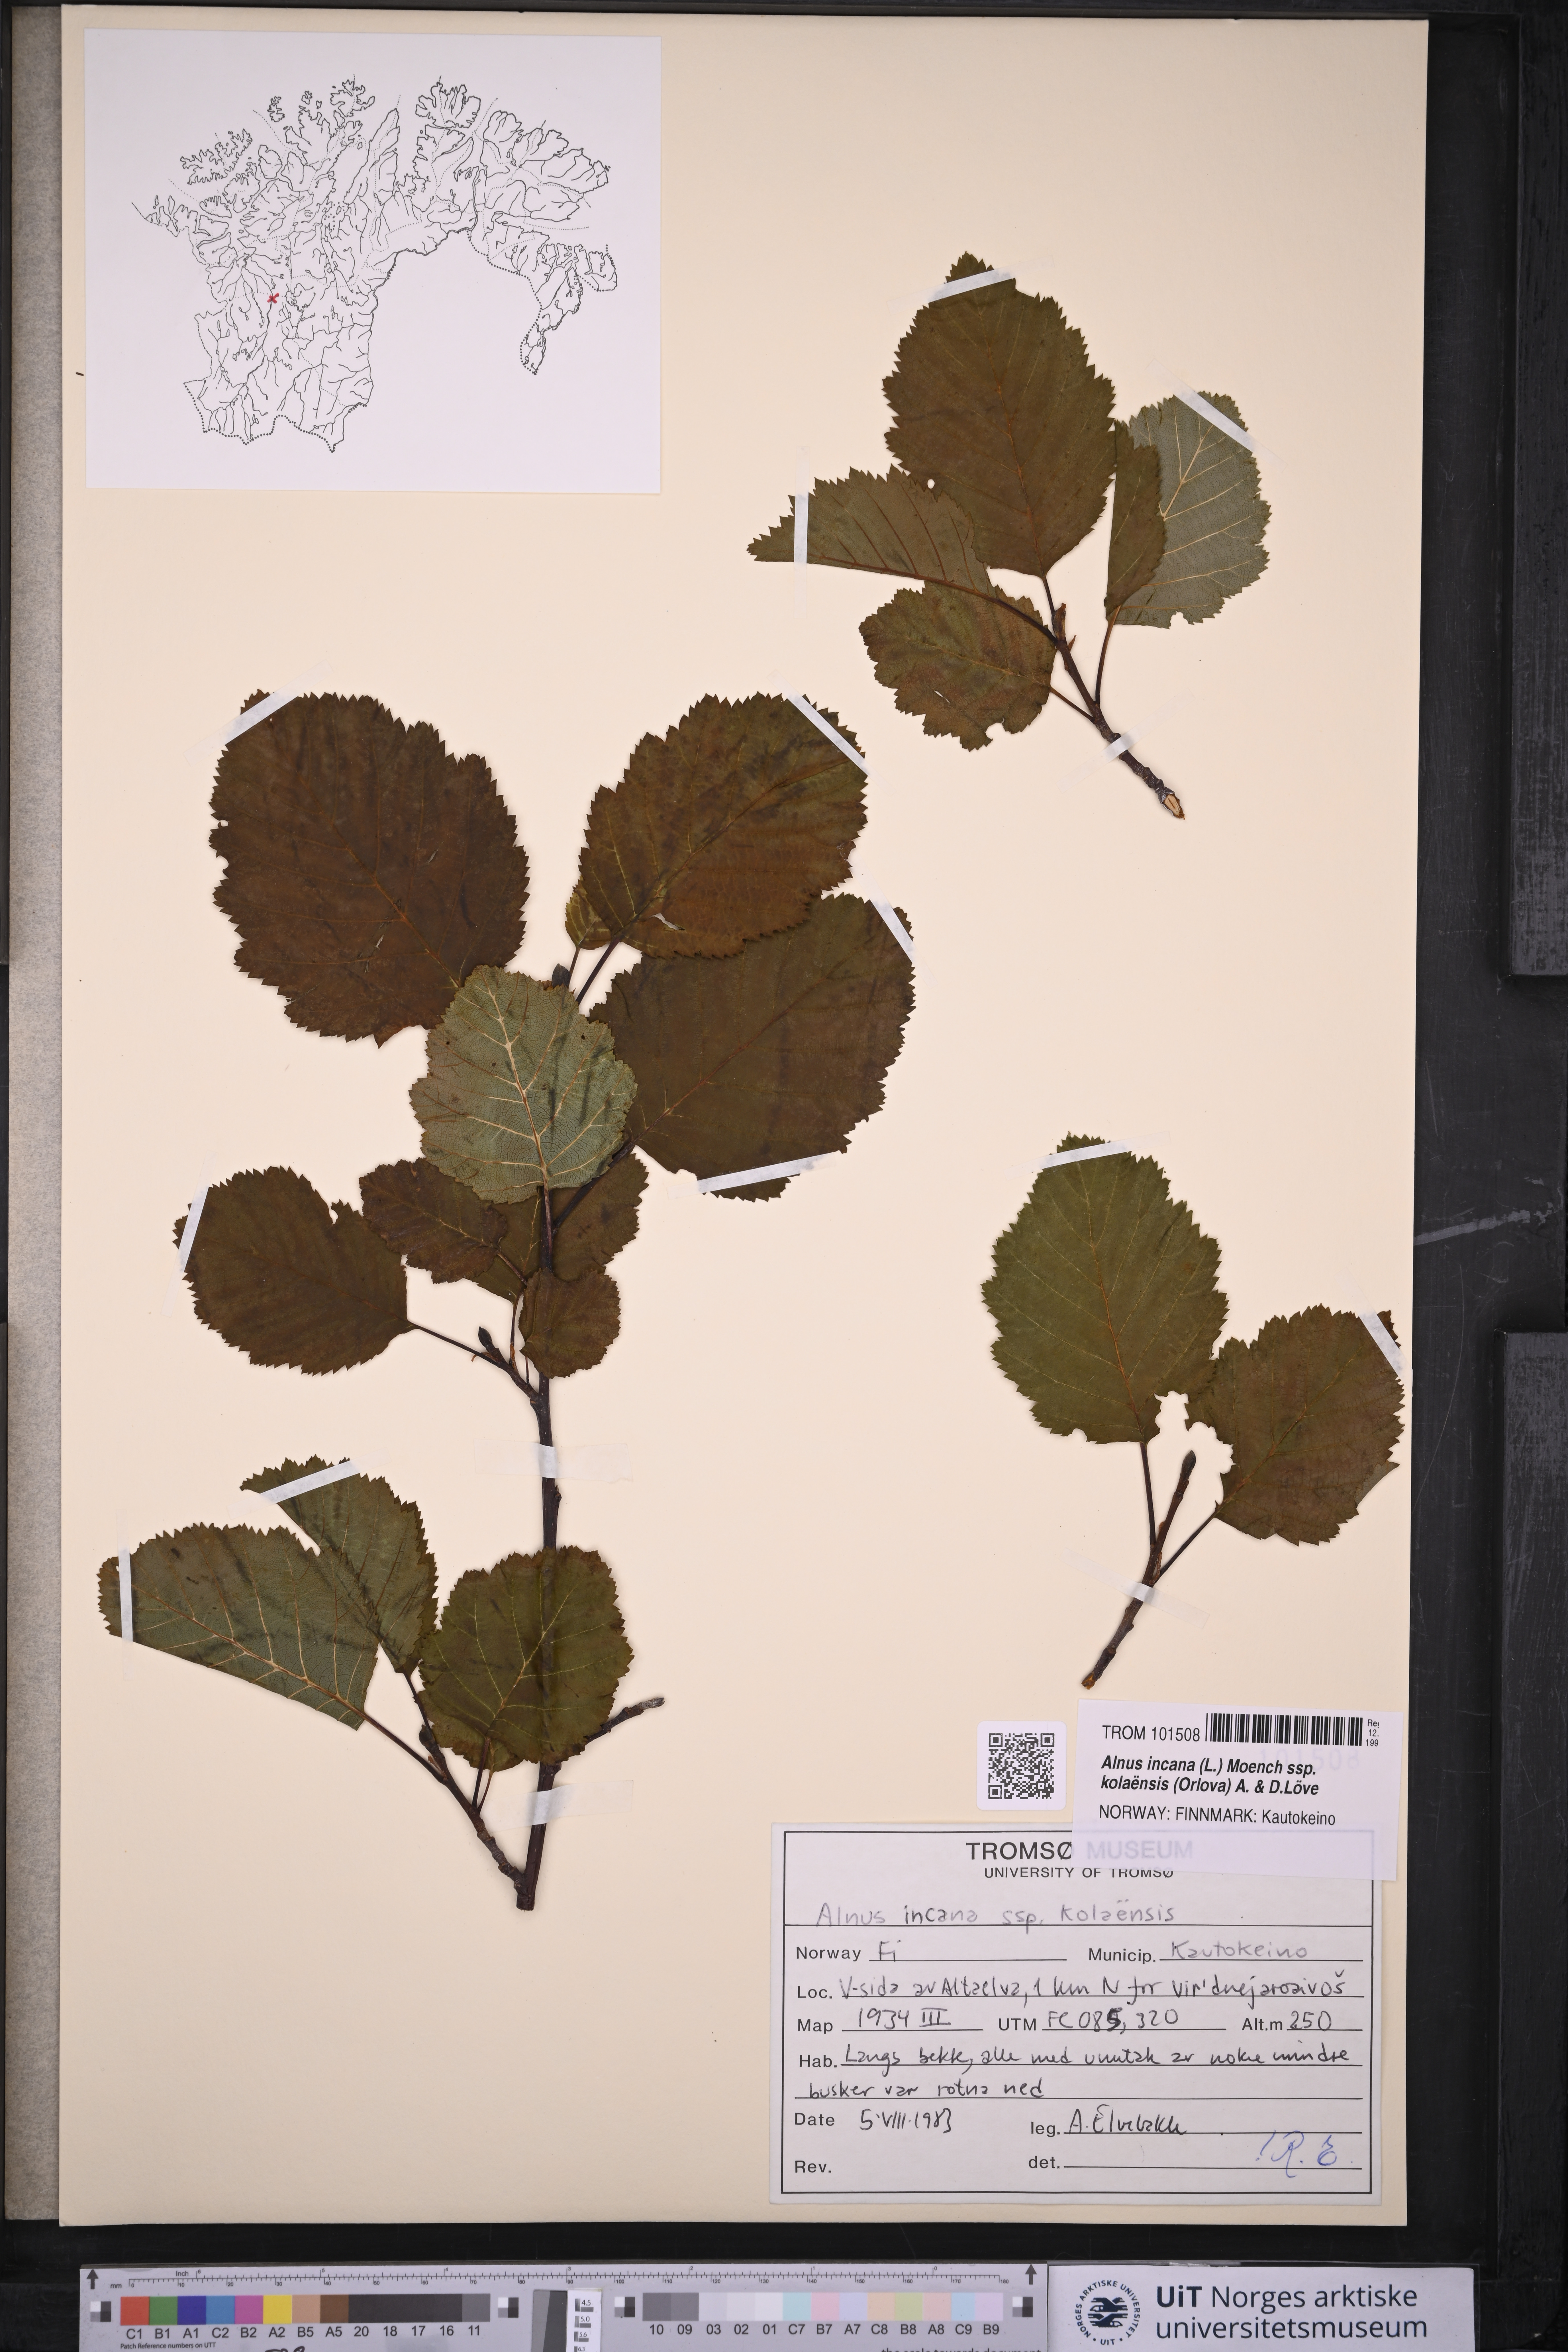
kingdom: Plantae
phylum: Tracheophyta
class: Magnoliopsida
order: Fagales
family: Betulaceae
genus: Alnus
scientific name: Alnus incana
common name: Grey alder
